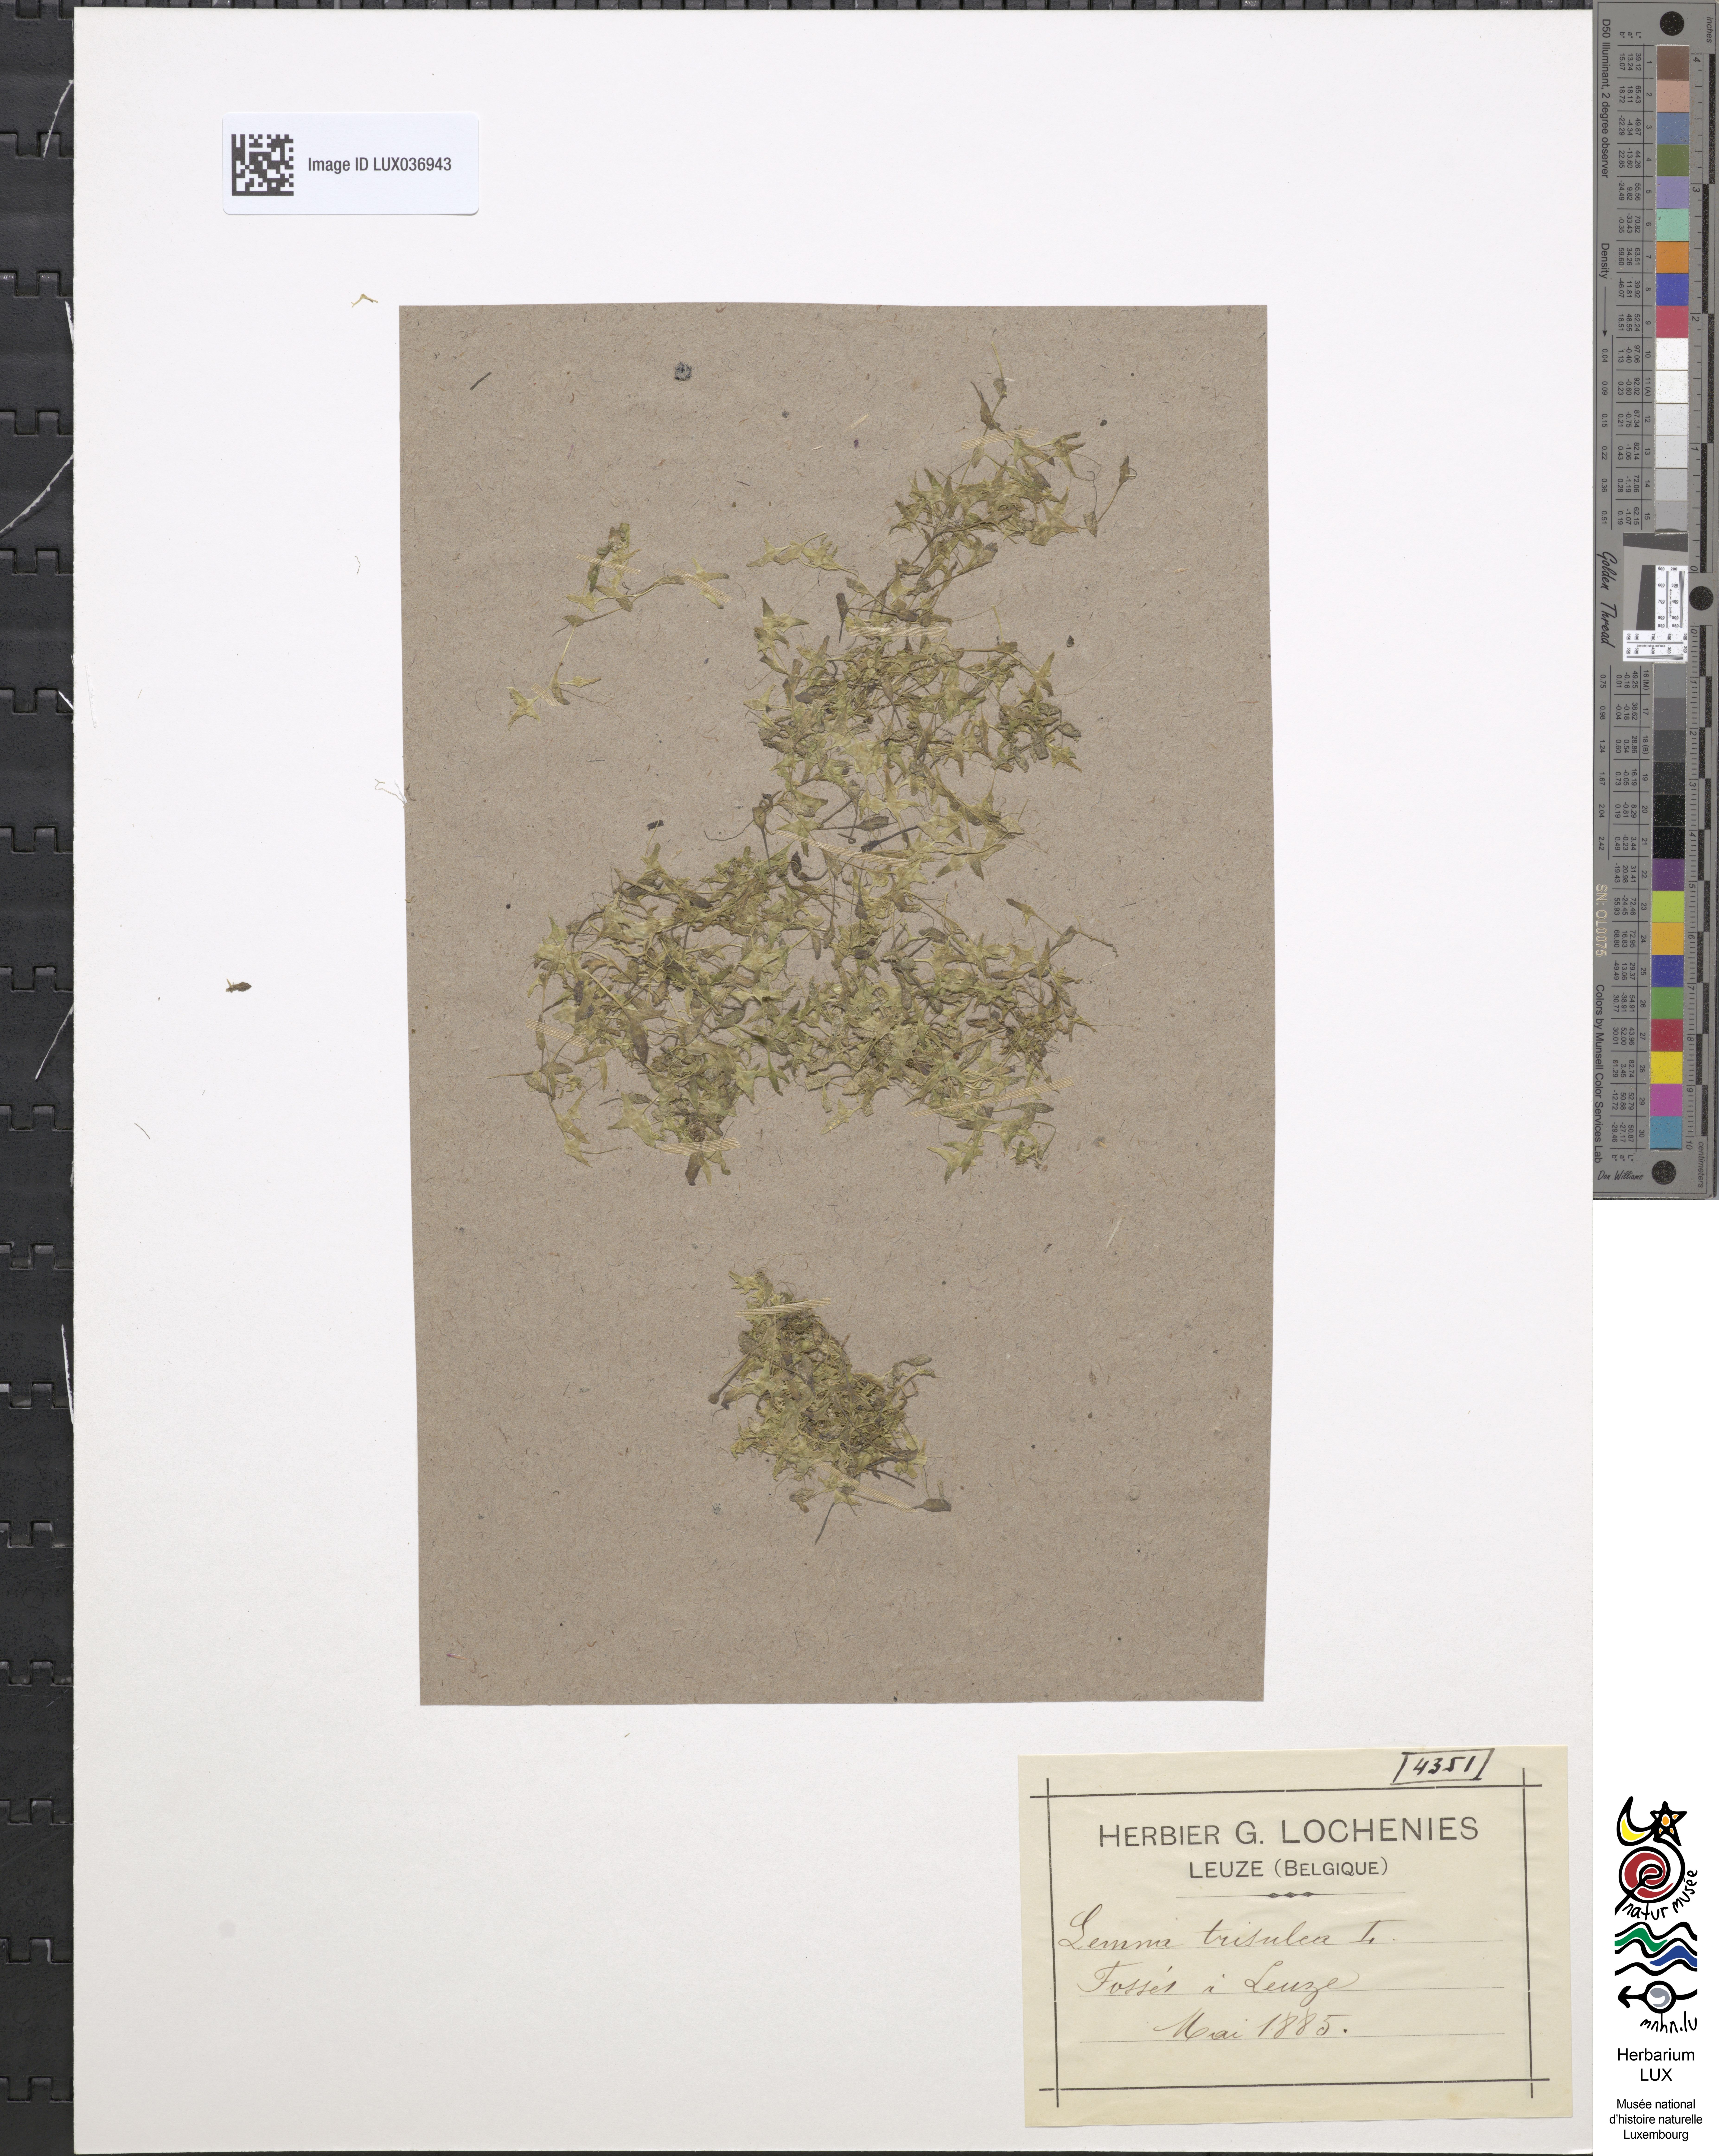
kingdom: Plantae
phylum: Tracheophyta
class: Liliopsida
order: Alismatales
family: Araceae
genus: Lemna
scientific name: Lemna trisulca
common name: Ivy-leaved duckweed
